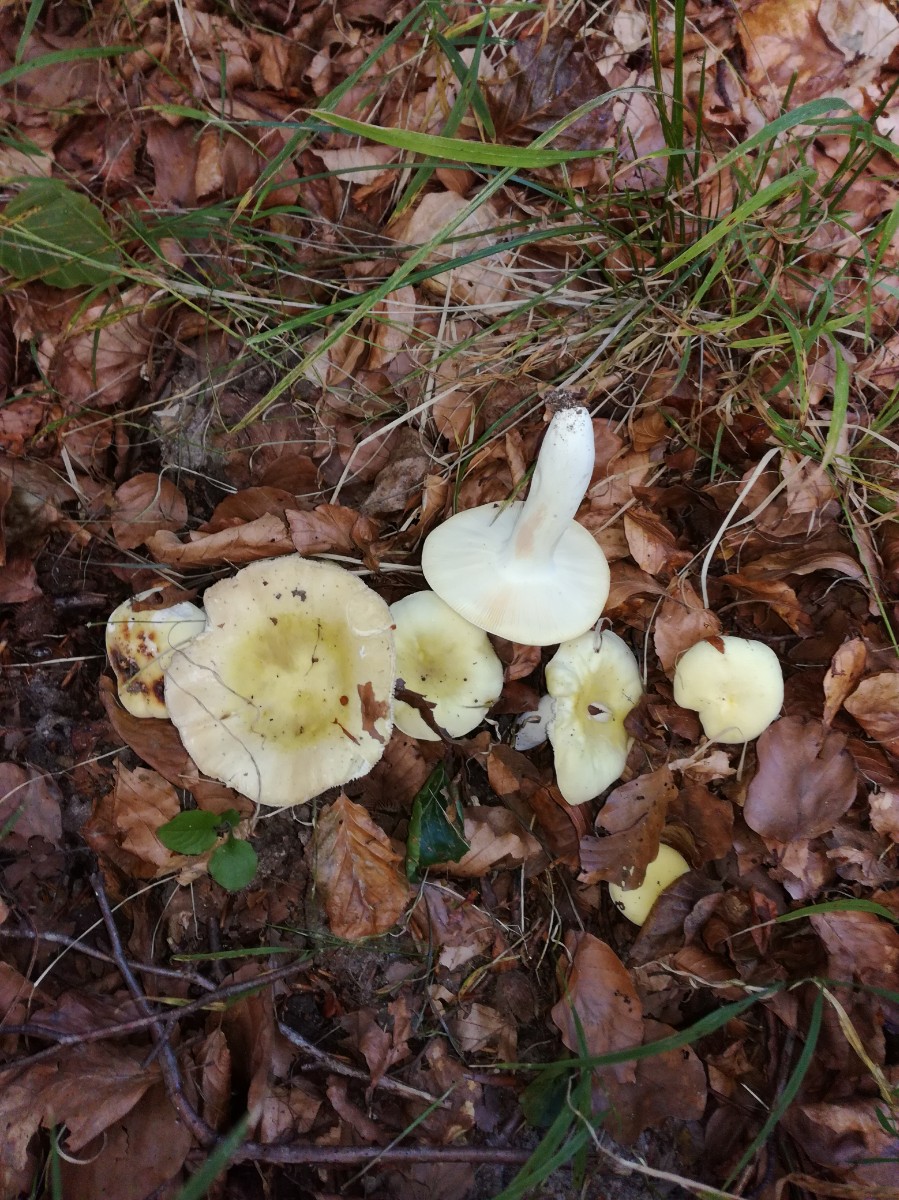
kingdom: Fungi
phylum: Basidiomycota
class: Agaricomycetes
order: Russulales
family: Russulaceae
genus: Russula
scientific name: Russula violeipes
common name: ferskengul skørhat
